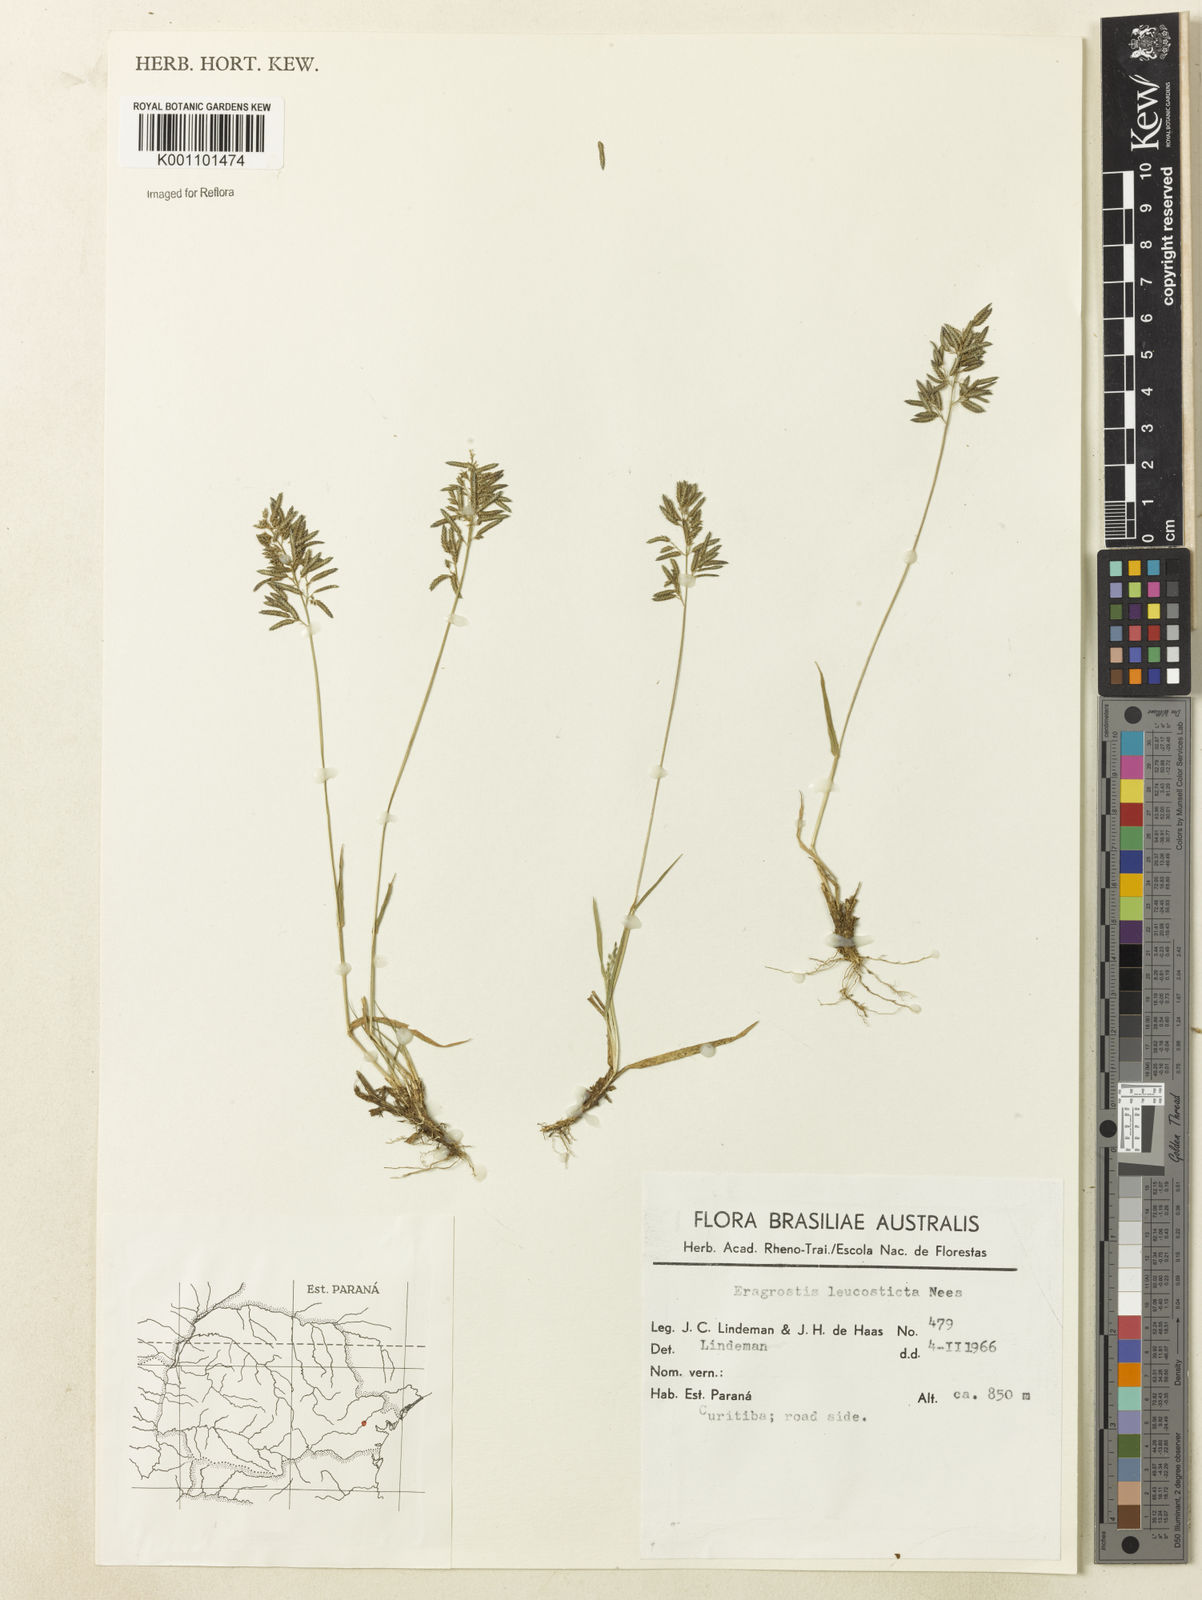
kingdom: Plantae
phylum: Tracheophyta
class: Liliopsida
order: Poales
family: Poaceae
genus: Eragrostis
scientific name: Eragrostis neesii
